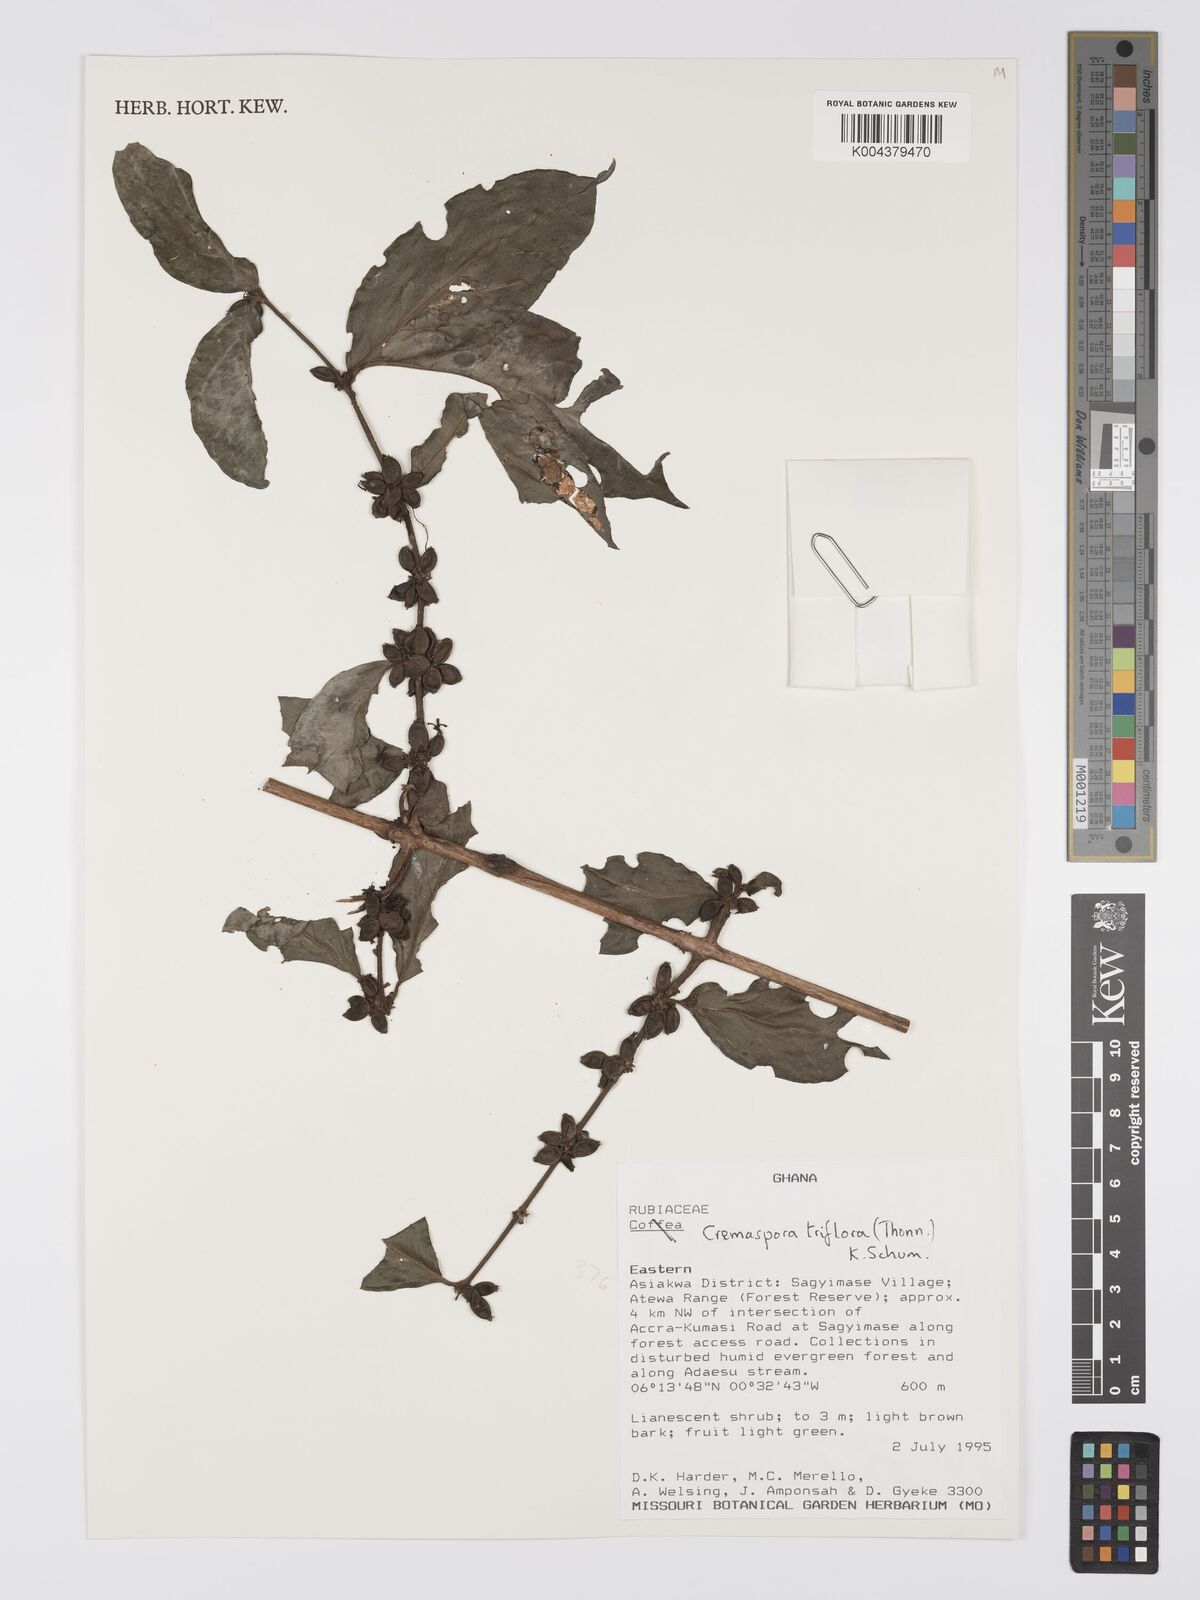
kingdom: Plantae
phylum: Tracheophyta
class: Magnoliopsida
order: Gentianales
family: Rubiaceae
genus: Cremaspora
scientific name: Cremaspora triflora
